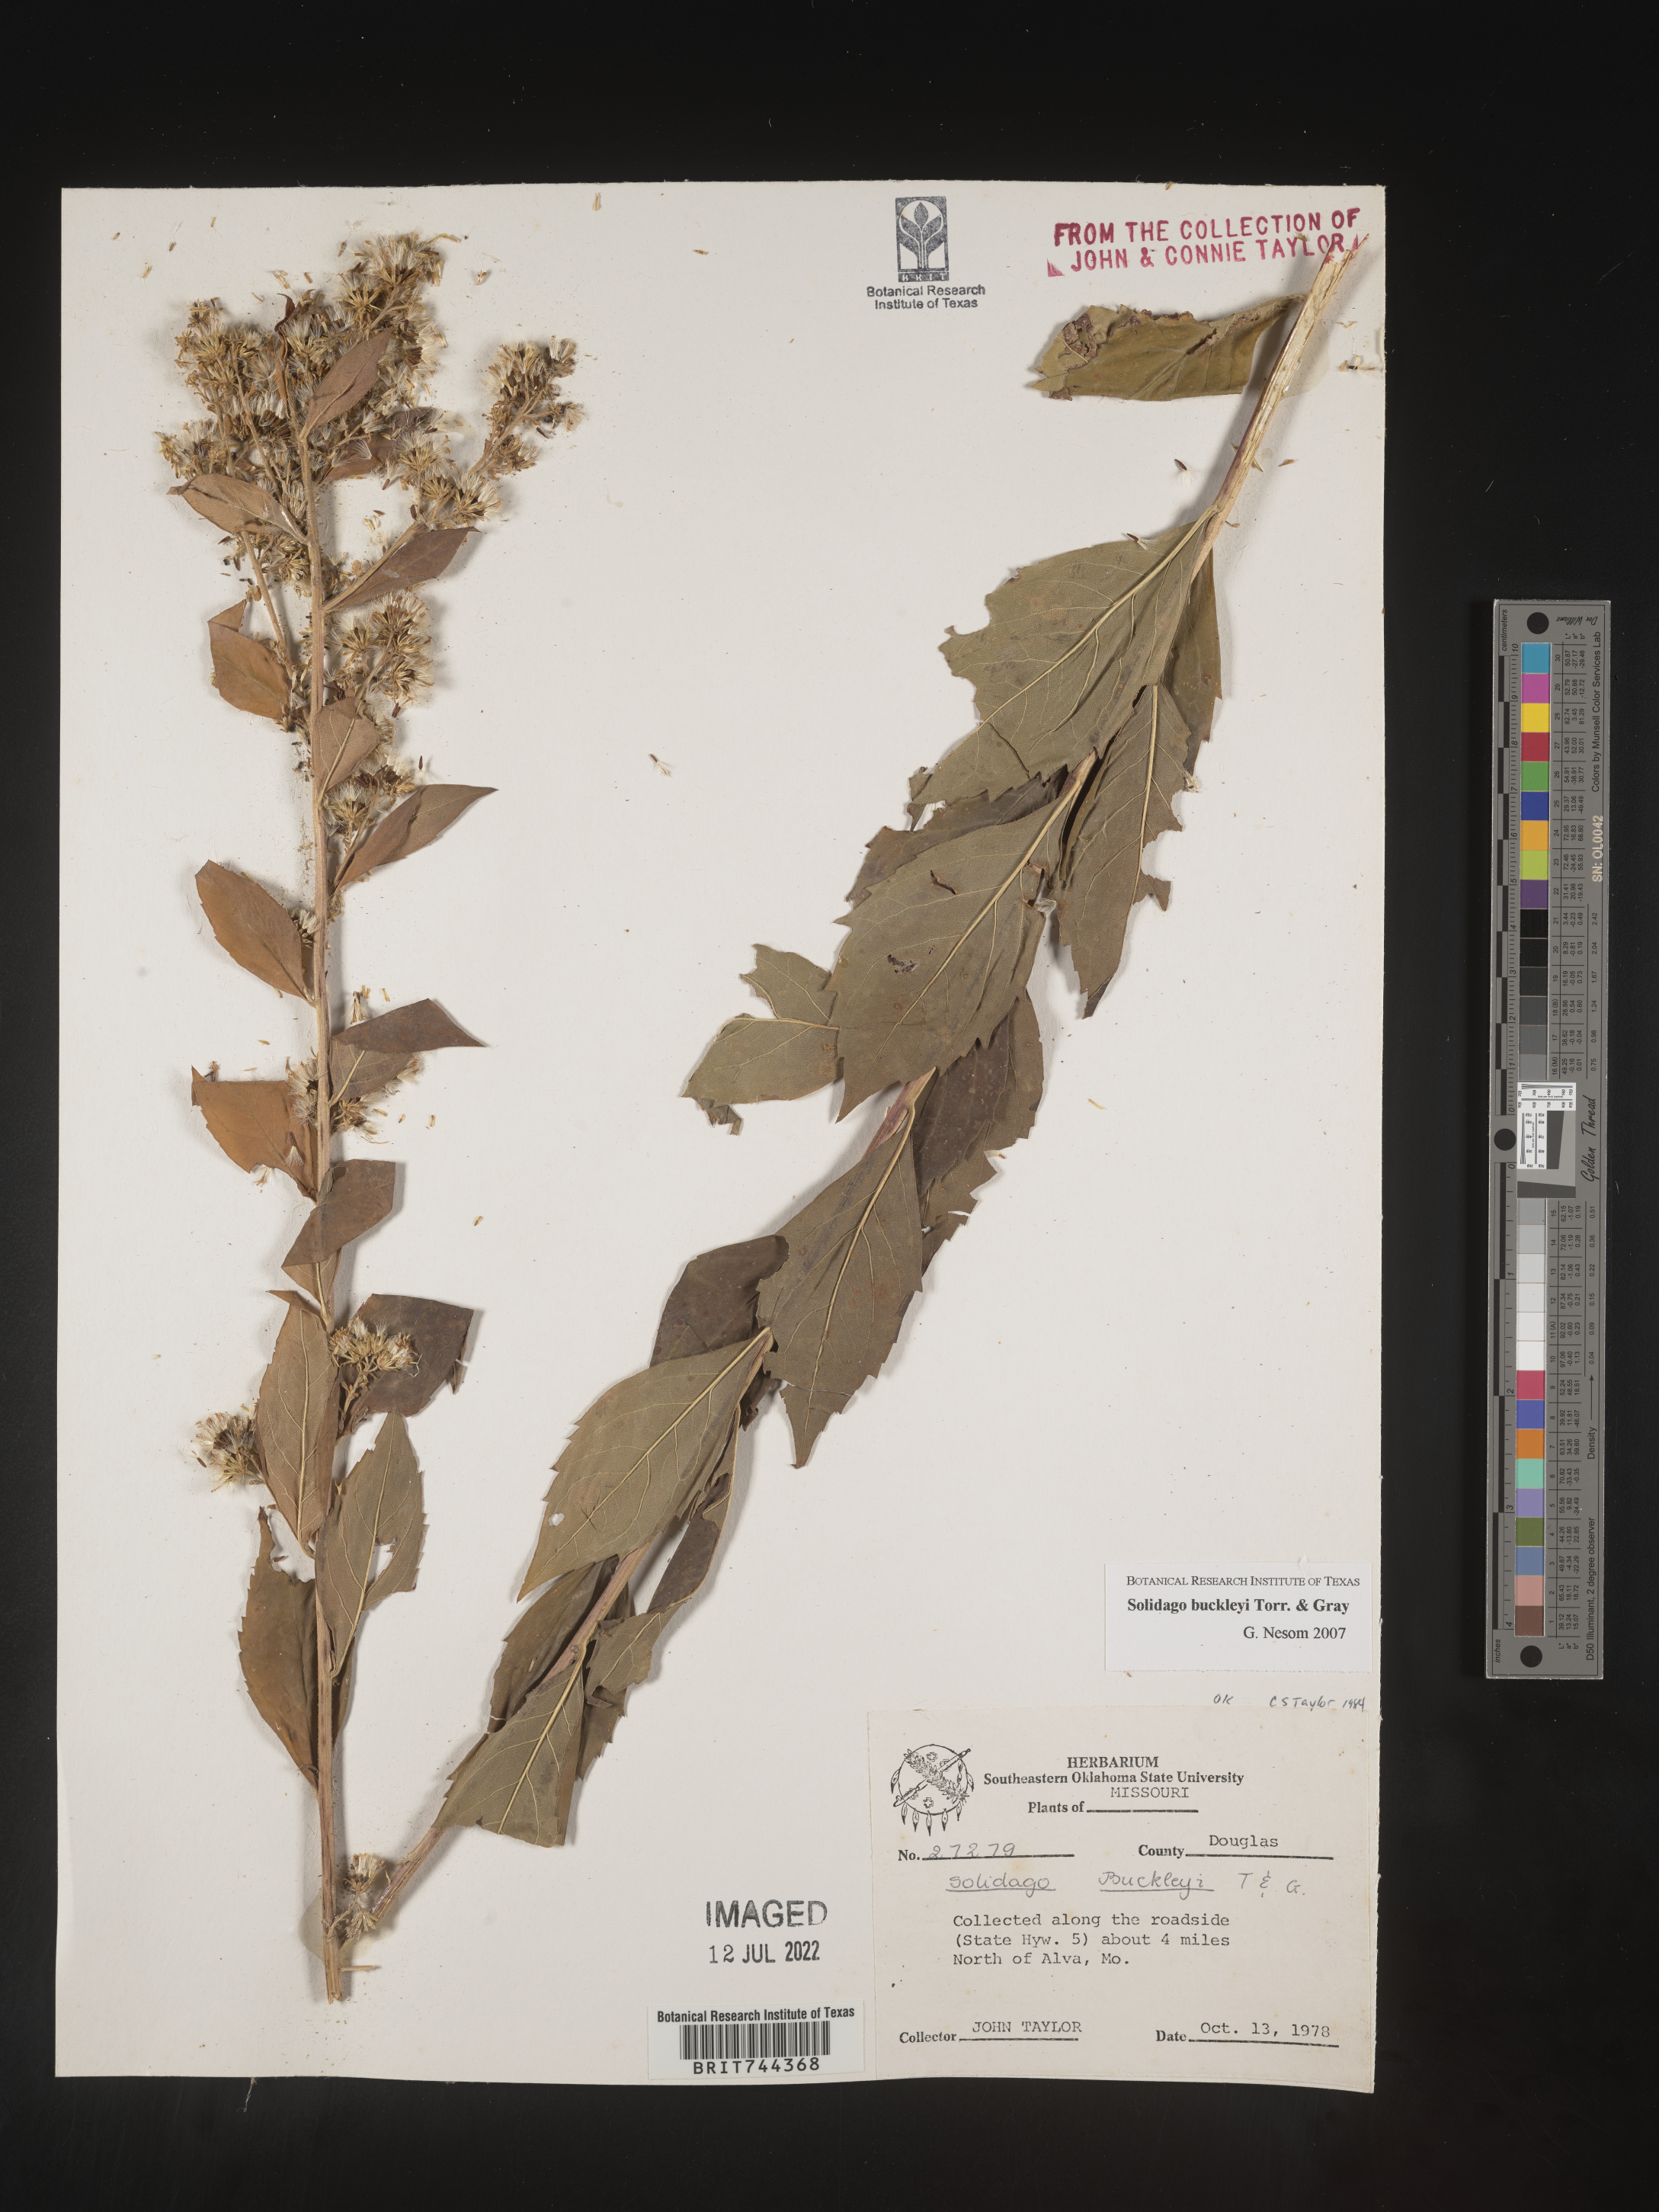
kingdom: Plantae
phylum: Tracheophyta
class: Magnoliopsida
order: Asterales
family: Asteraceae
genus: Solidago
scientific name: Solidago buckleyi
